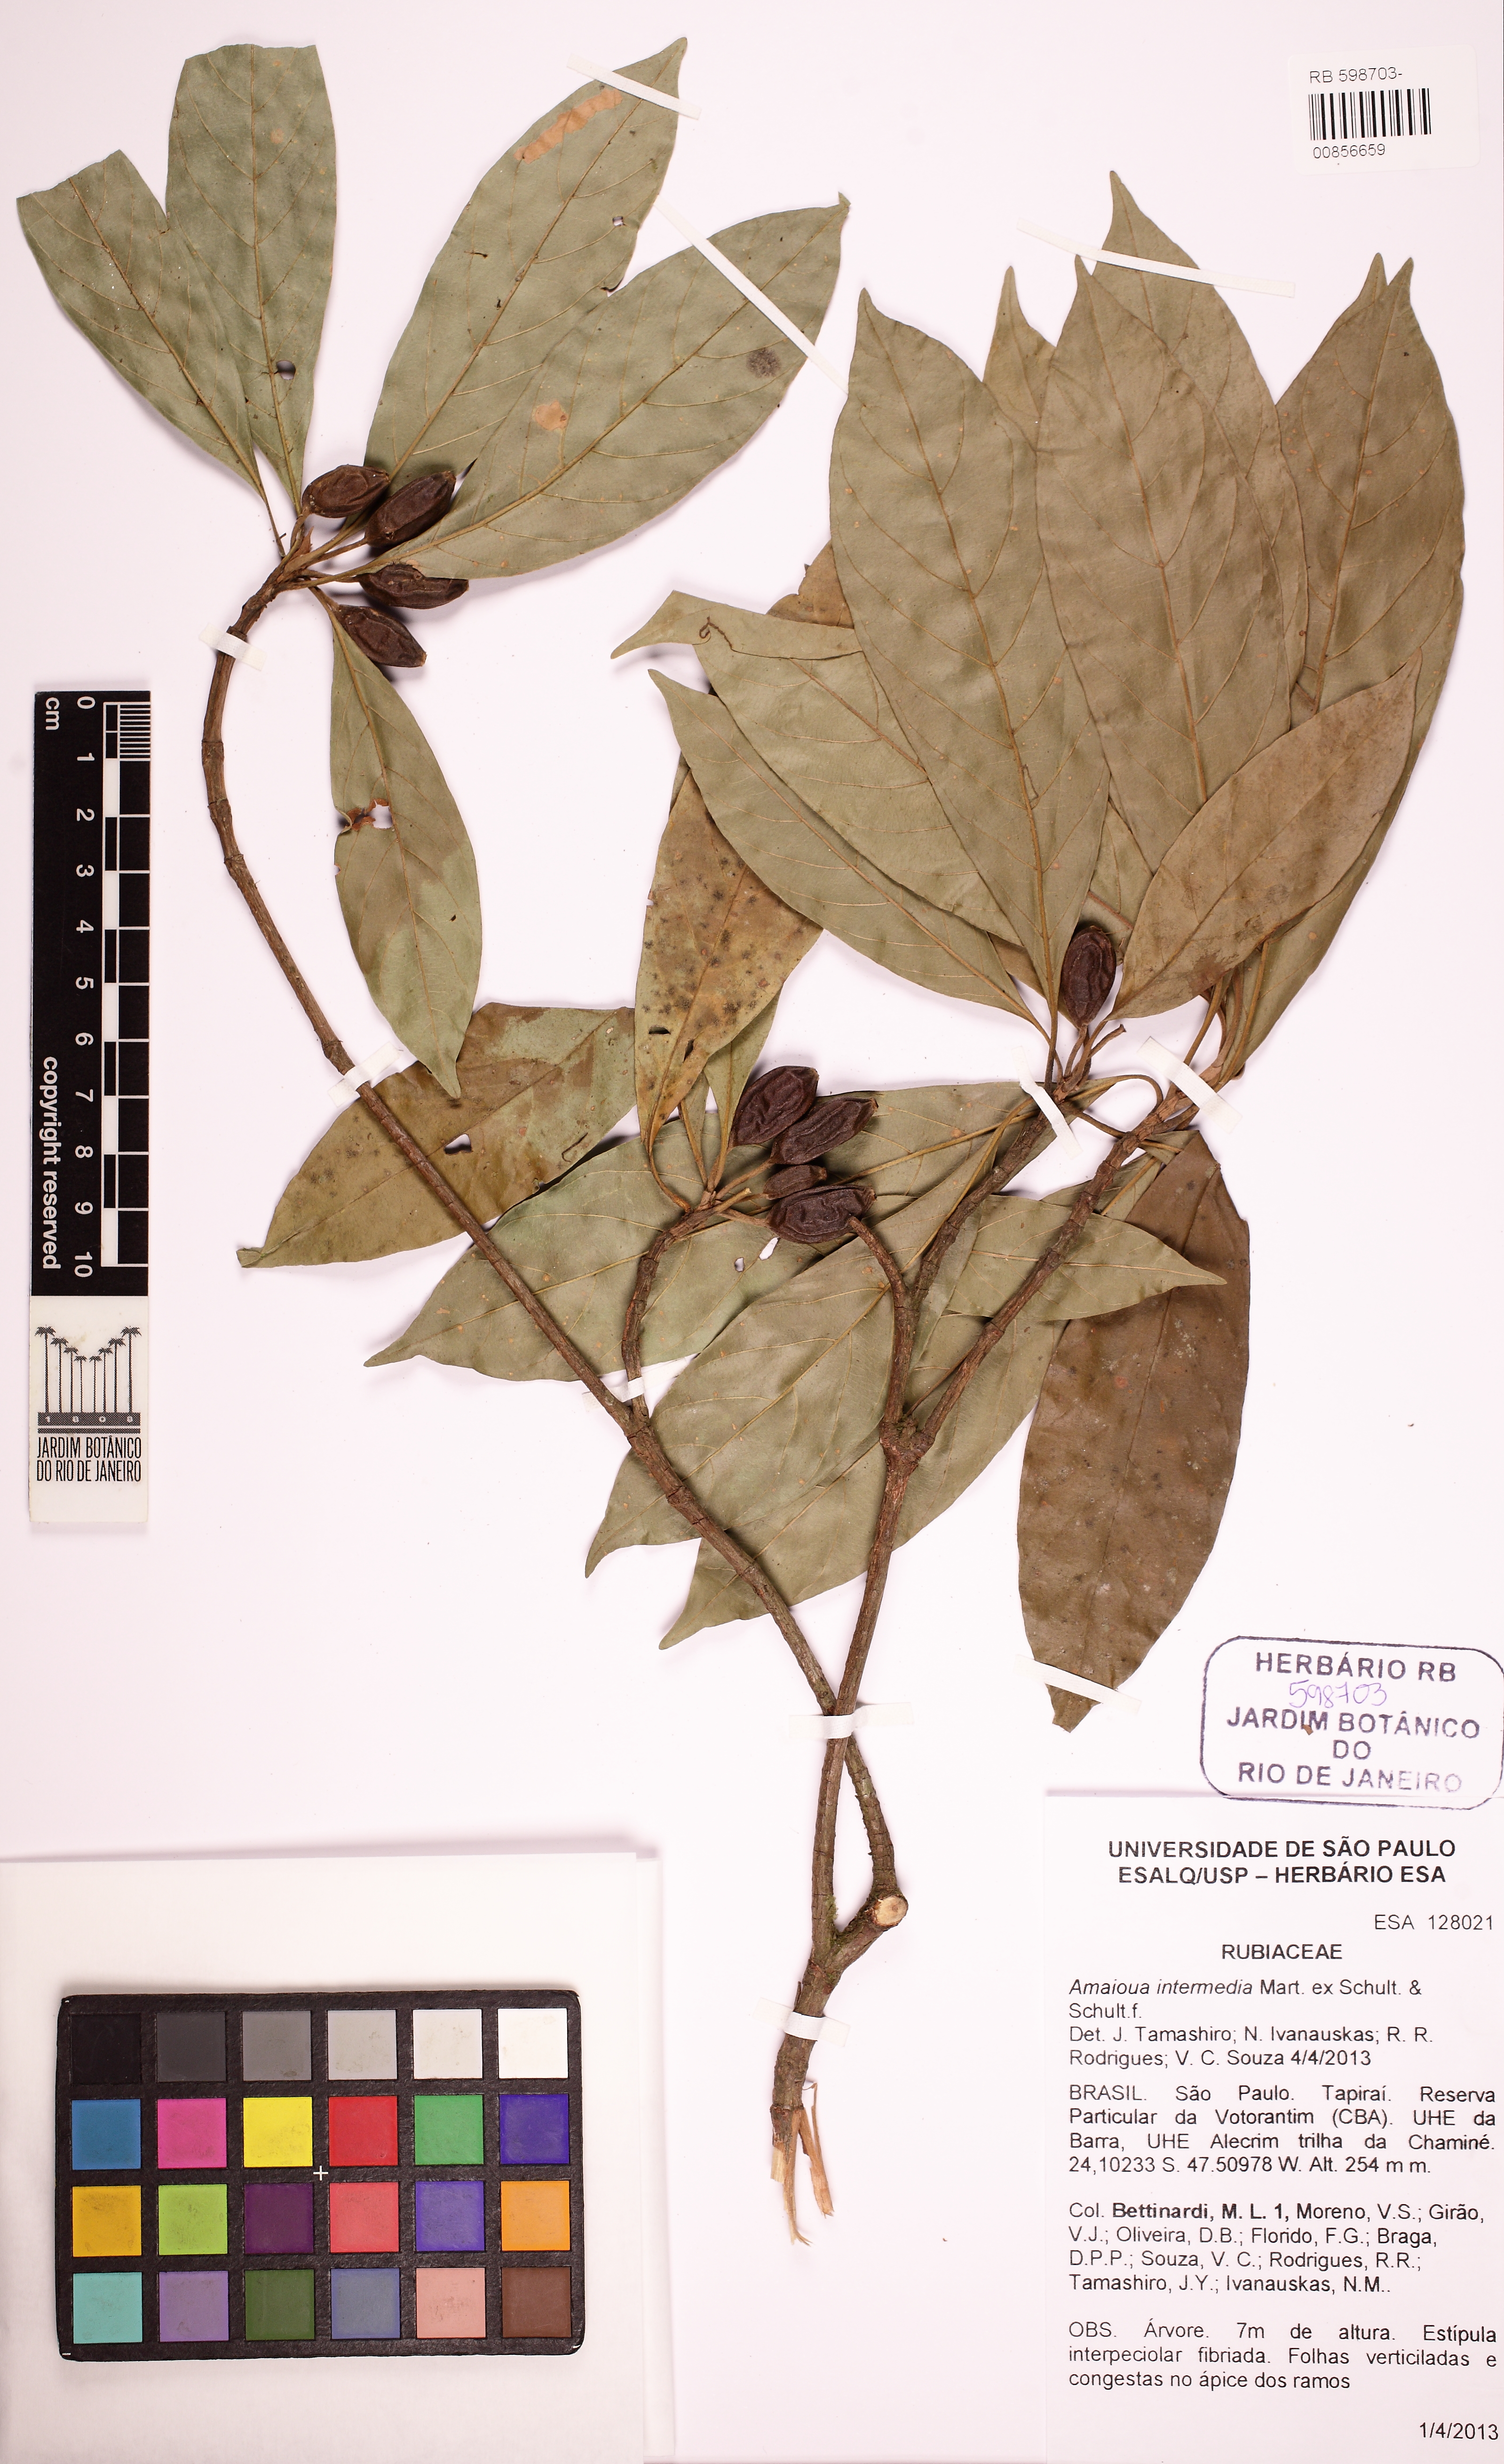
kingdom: Plantae
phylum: Tracheophyta
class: Magnoliopsida
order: Gentianales
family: Rubiaceae
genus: Amaioua
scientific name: Amaioua intermedia
